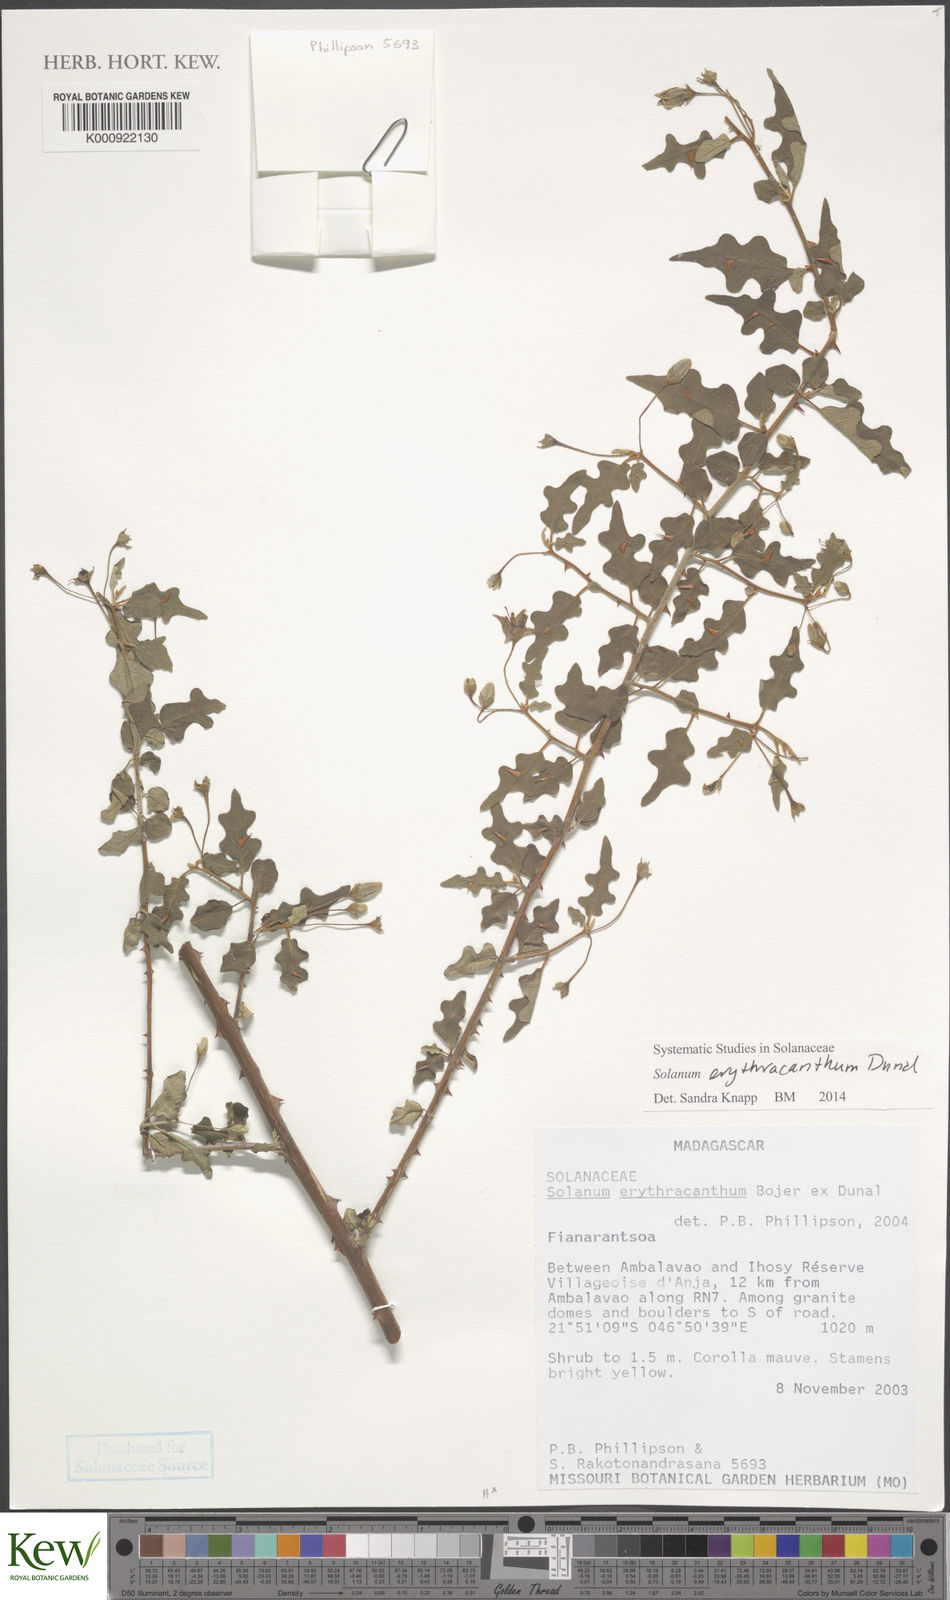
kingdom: Plantae
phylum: Tracheophyta
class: Magnoliopsida
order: Solanales
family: Solanaceae
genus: Solanum
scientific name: Solanum erythracanthum
